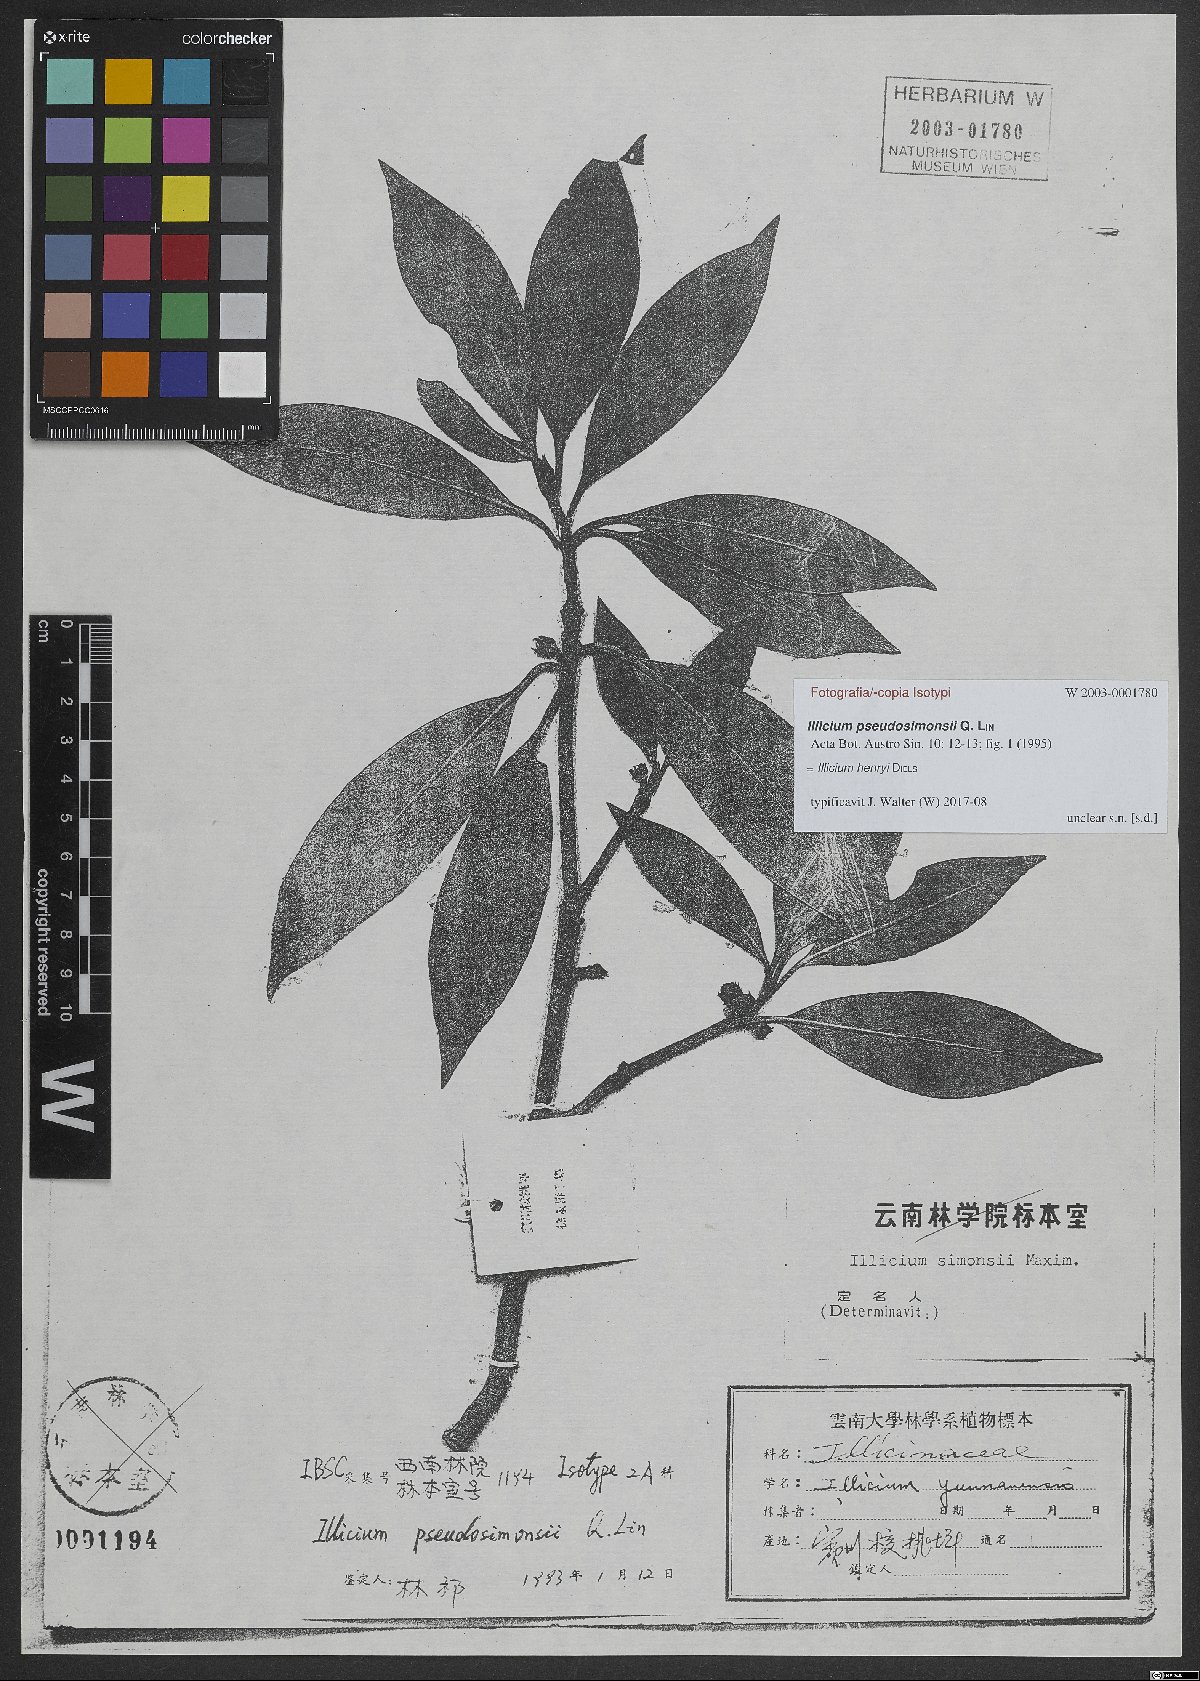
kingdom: Plantae
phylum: Tracheophyta
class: Magnoliopsida
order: Austrobaileyales
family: Schisandraceae
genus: Illicium
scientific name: Illicium henryi
